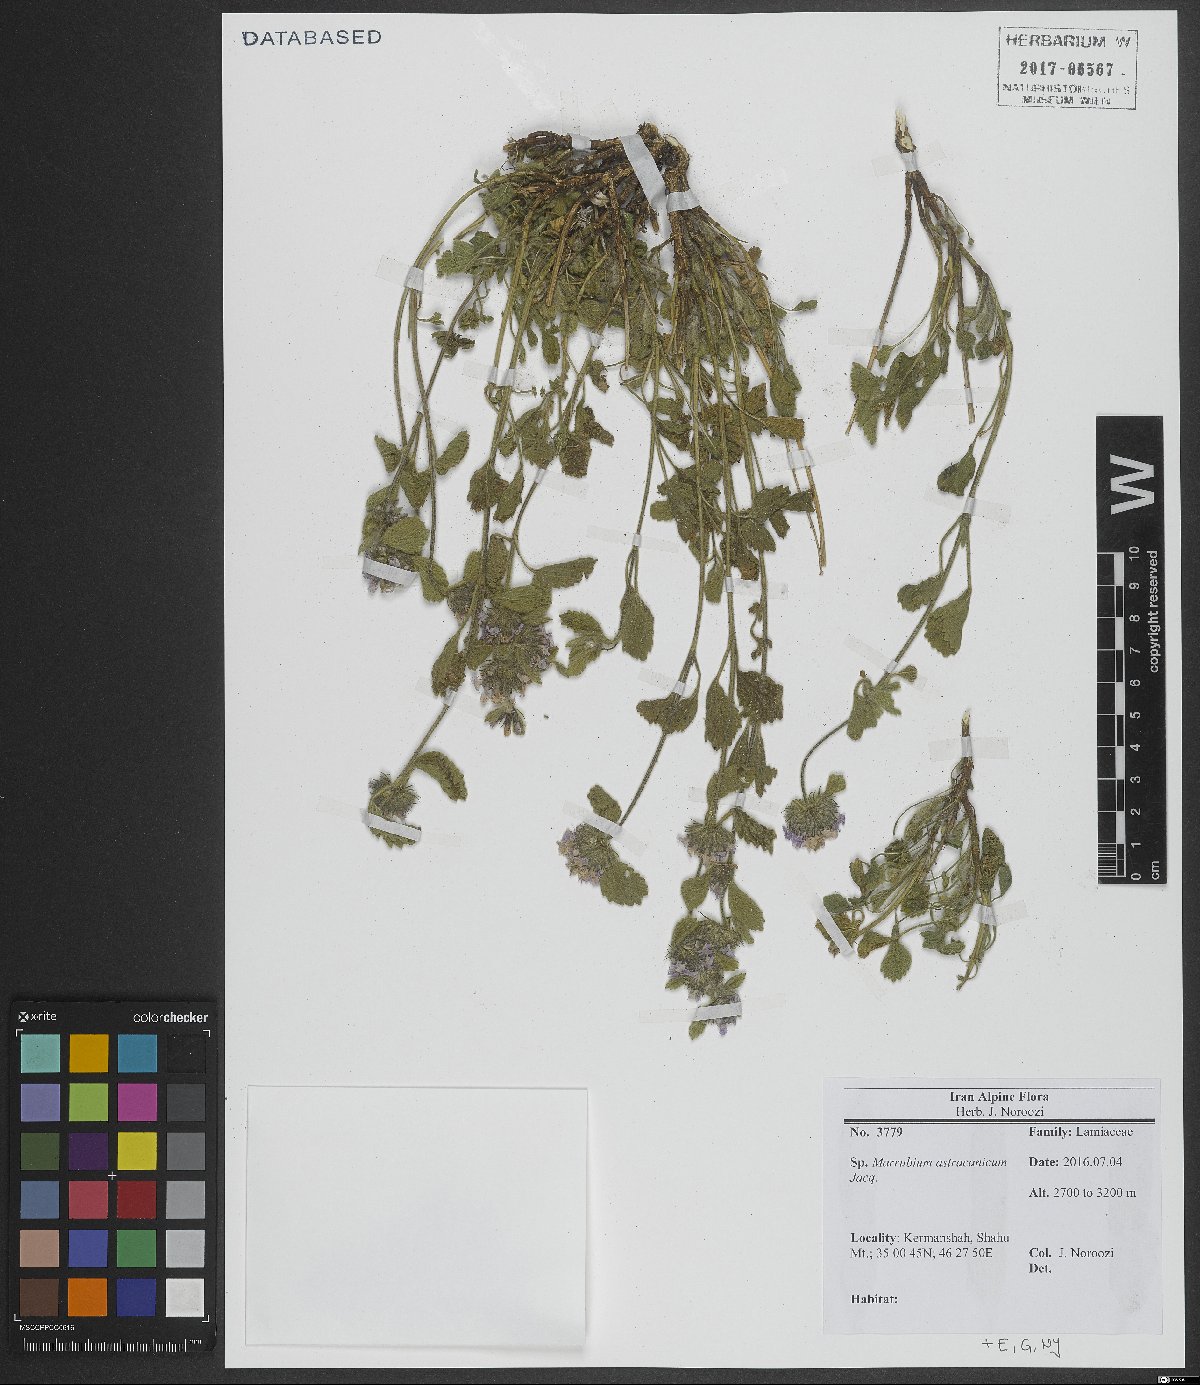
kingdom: Plantae
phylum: Tracheophyta
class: Magnoliopsida
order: Lamiales
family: Lamiaceae
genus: Marrubium
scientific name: Marrubium astracanicum
